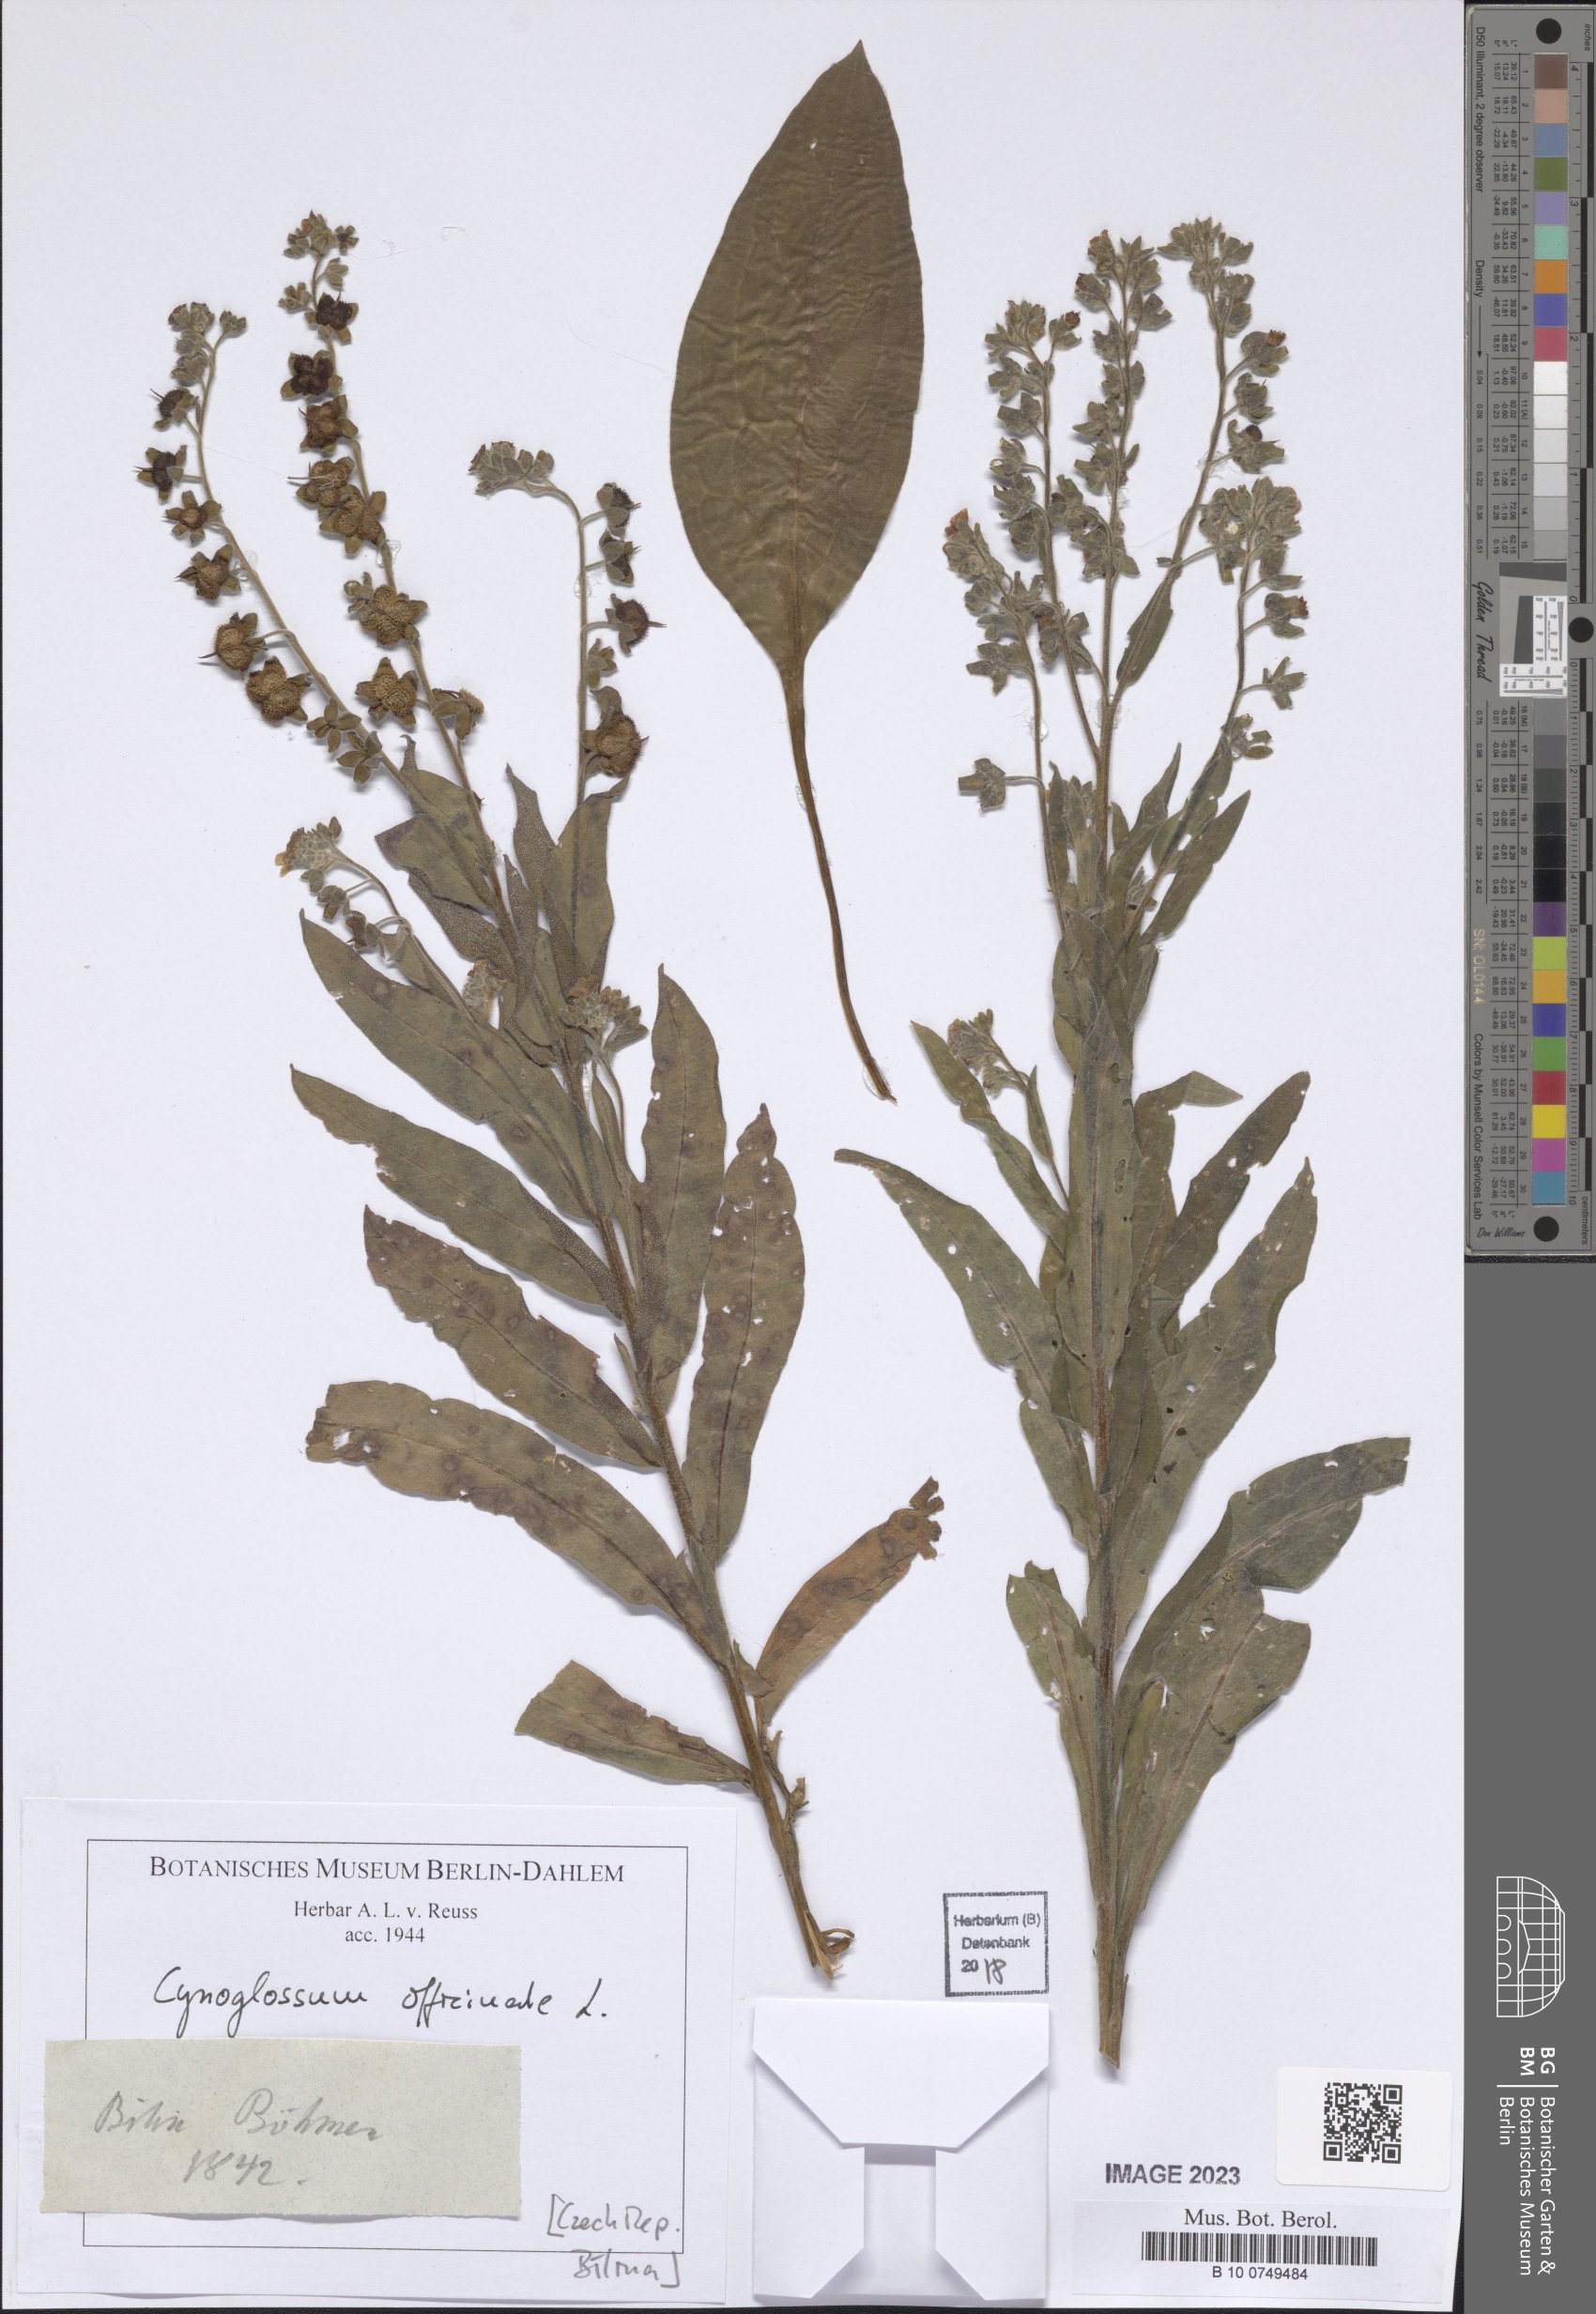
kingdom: Plantae
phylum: Tracheophyta
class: Magnoliopsida
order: Boraginales
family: Boraginaceae
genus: Cynoglossum
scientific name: Cynoglossum officinale
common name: Hound's-tongue
